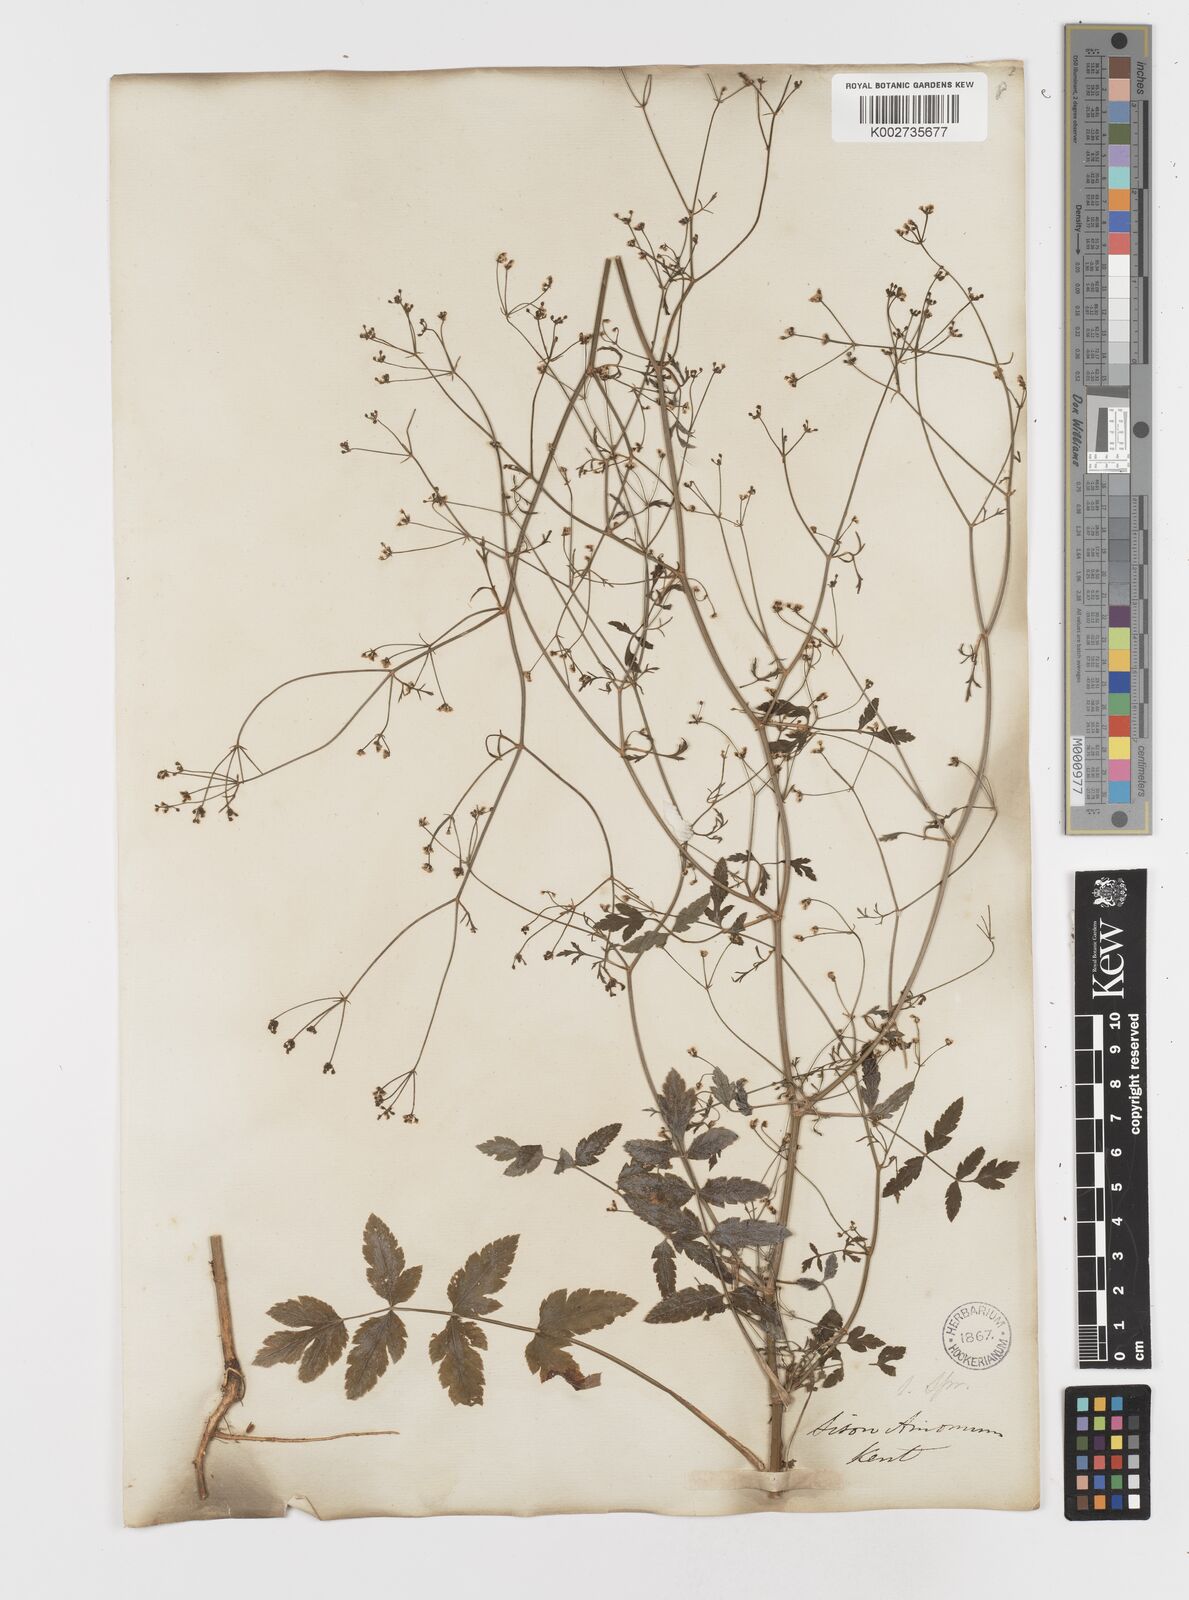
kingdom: Plantae
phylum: Tracheophyta
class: Magnoliopsida
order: Apiales
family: Apiaceae
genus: Sison
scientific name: Sison amomum
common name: Stone-parsley
